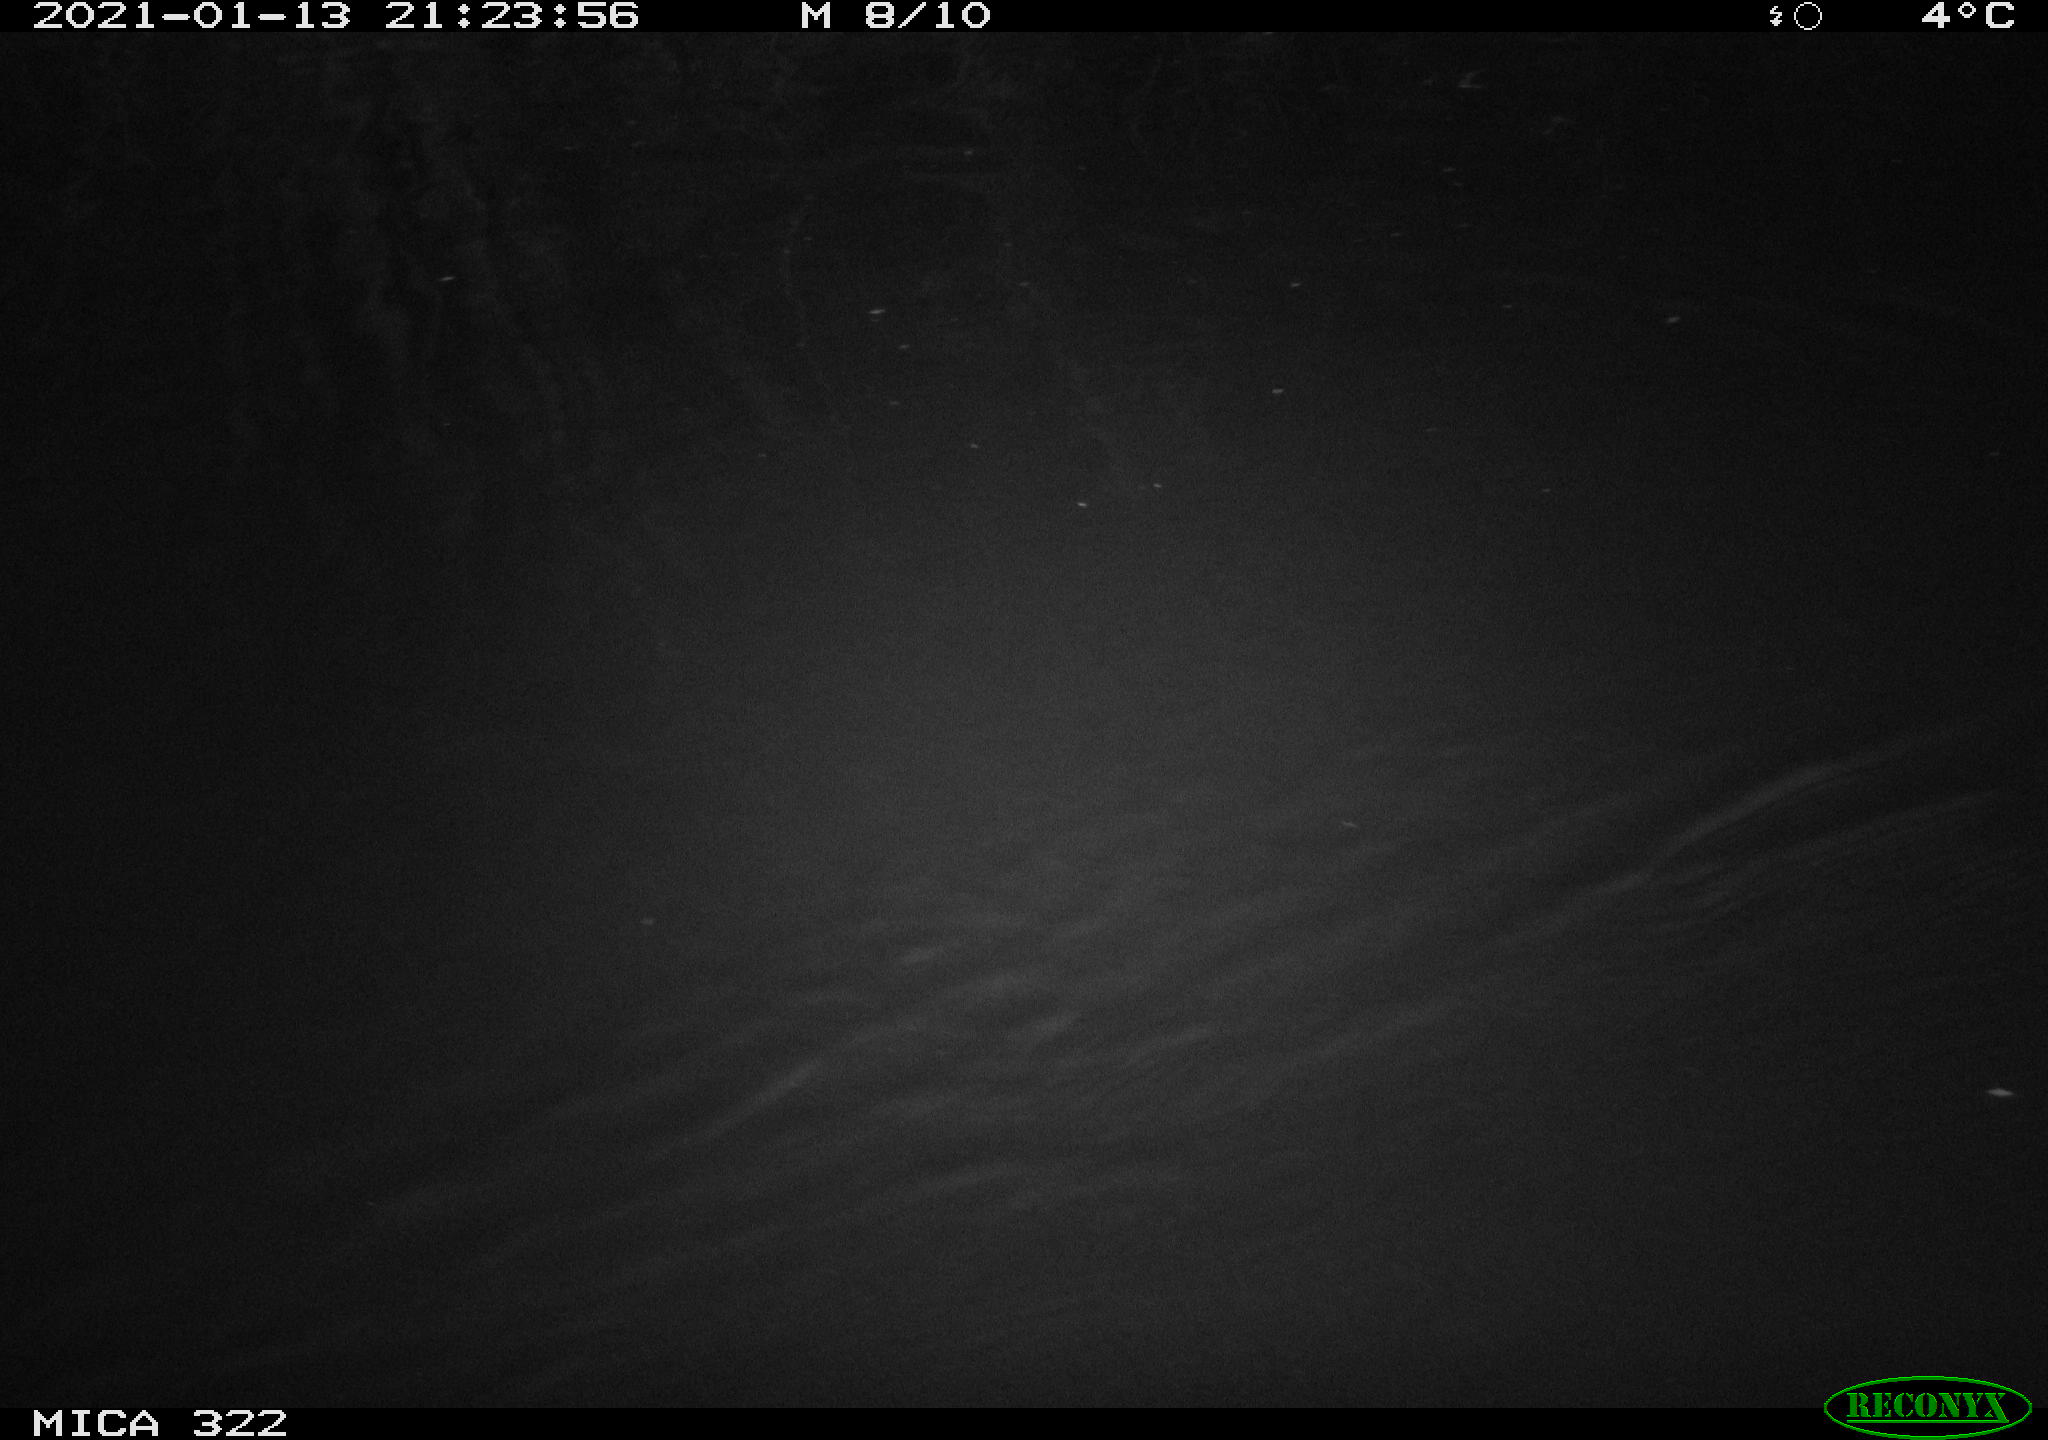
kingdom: Animalia
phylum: Chordata
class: Aves
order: Anseriformes
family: Anatidae
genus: Anas
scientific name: Anas platyrhynchos
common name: Mallard
